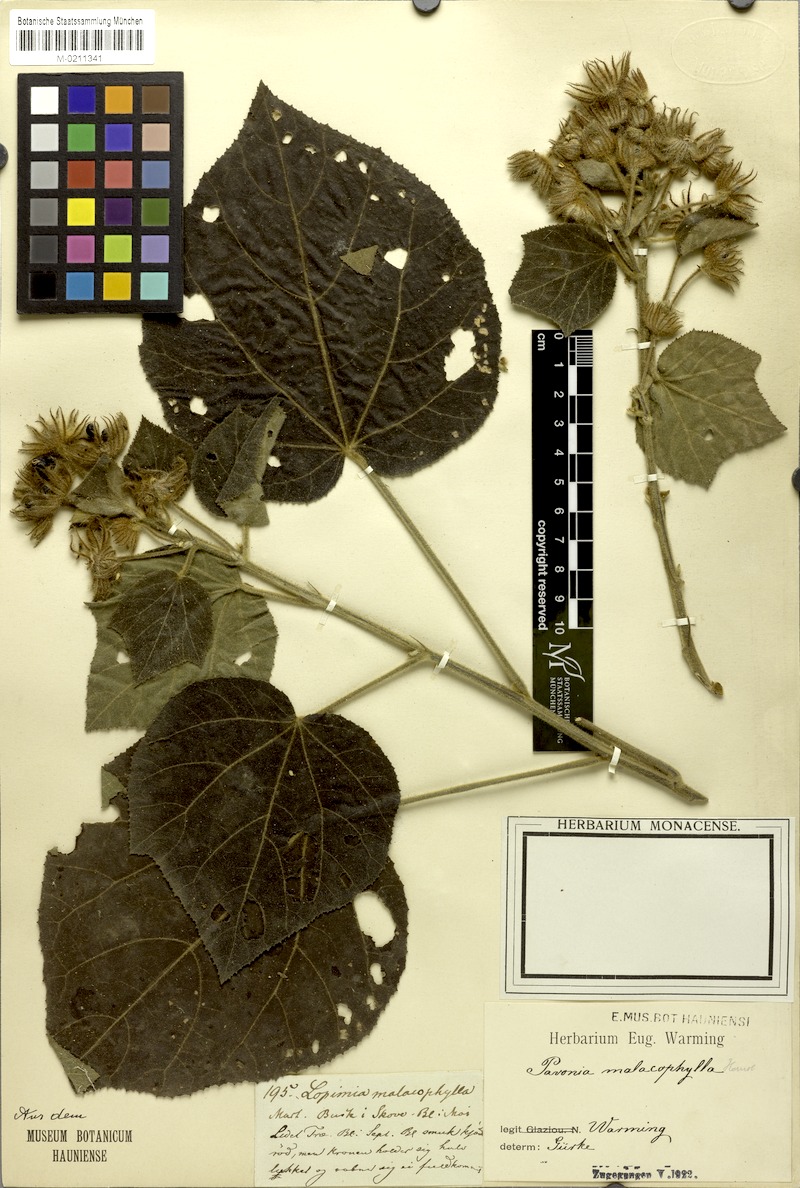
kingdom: Plantae
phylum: Tracheophyta
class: Magnoliopsida
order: Malvales
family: Malvaceae
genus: Pavonia
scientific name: Pavonia malacophylla
